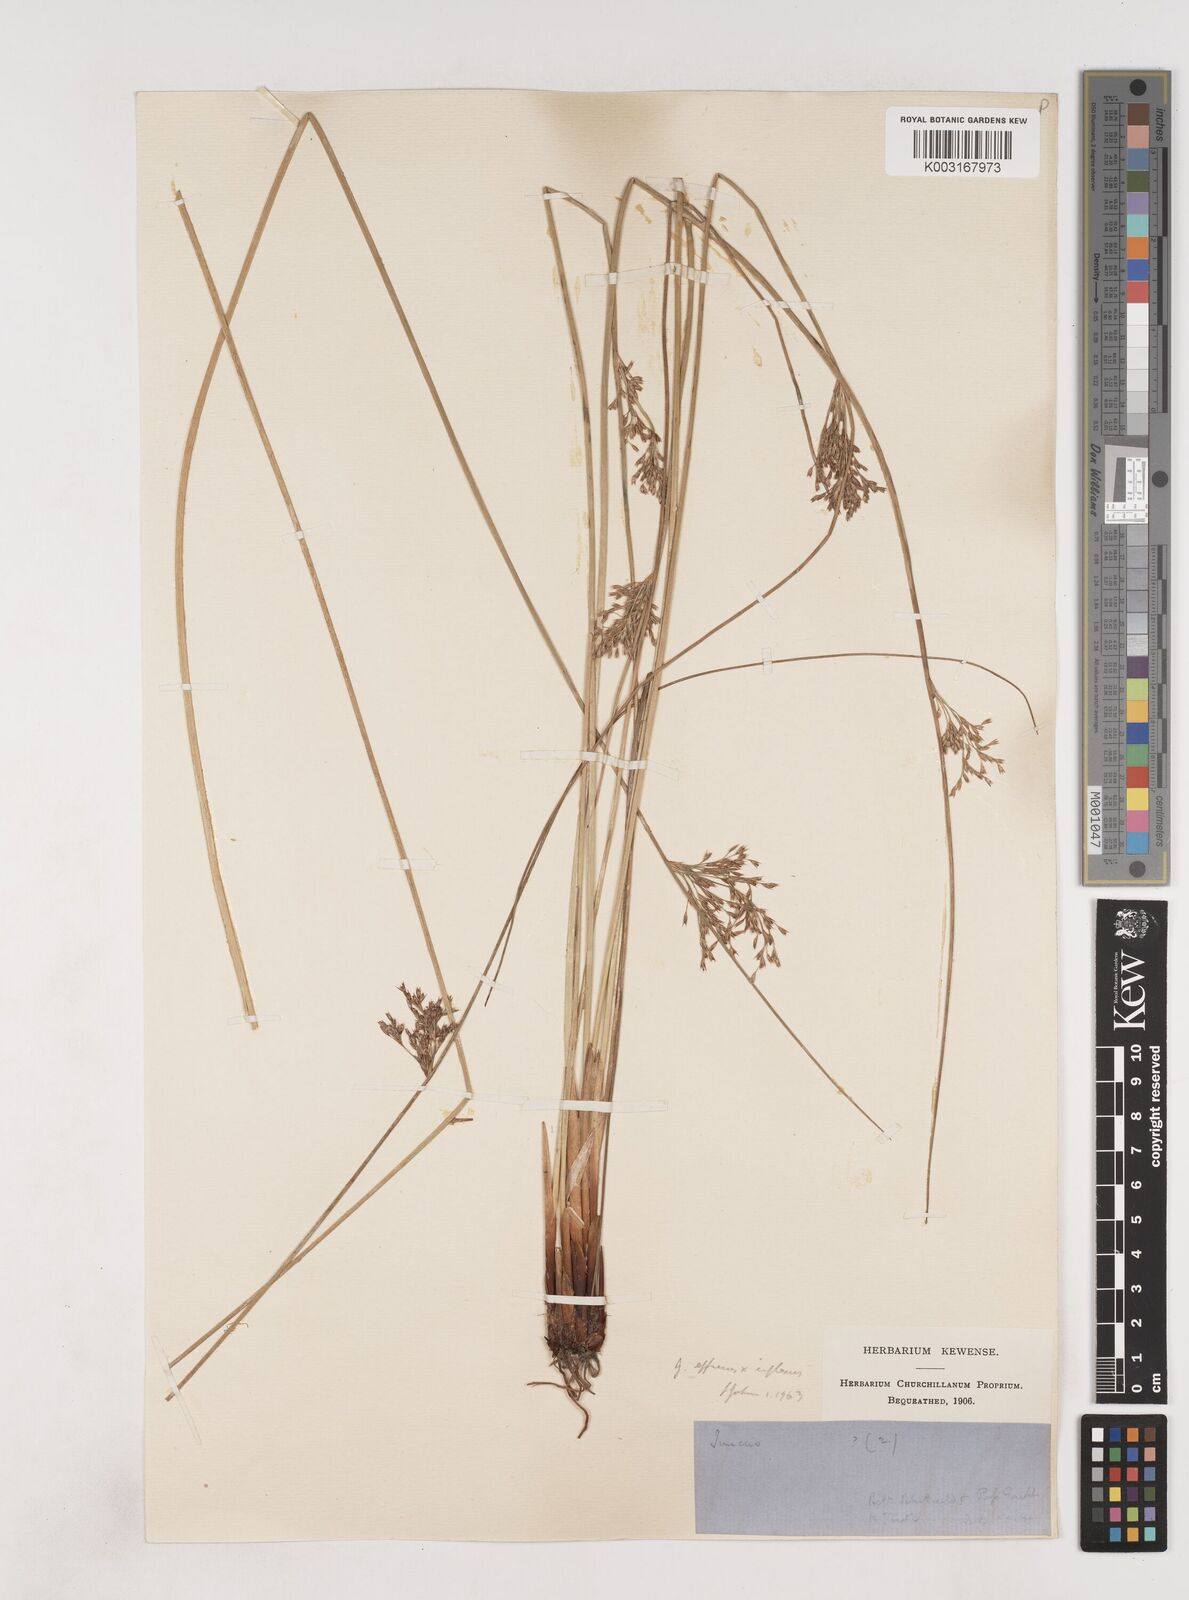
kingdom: Plantae
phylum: Tracheophyta
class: Liliopsida
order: Poales
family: Juncaceae
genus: Juncus
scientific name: Juncus effusus
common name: Soft rush
